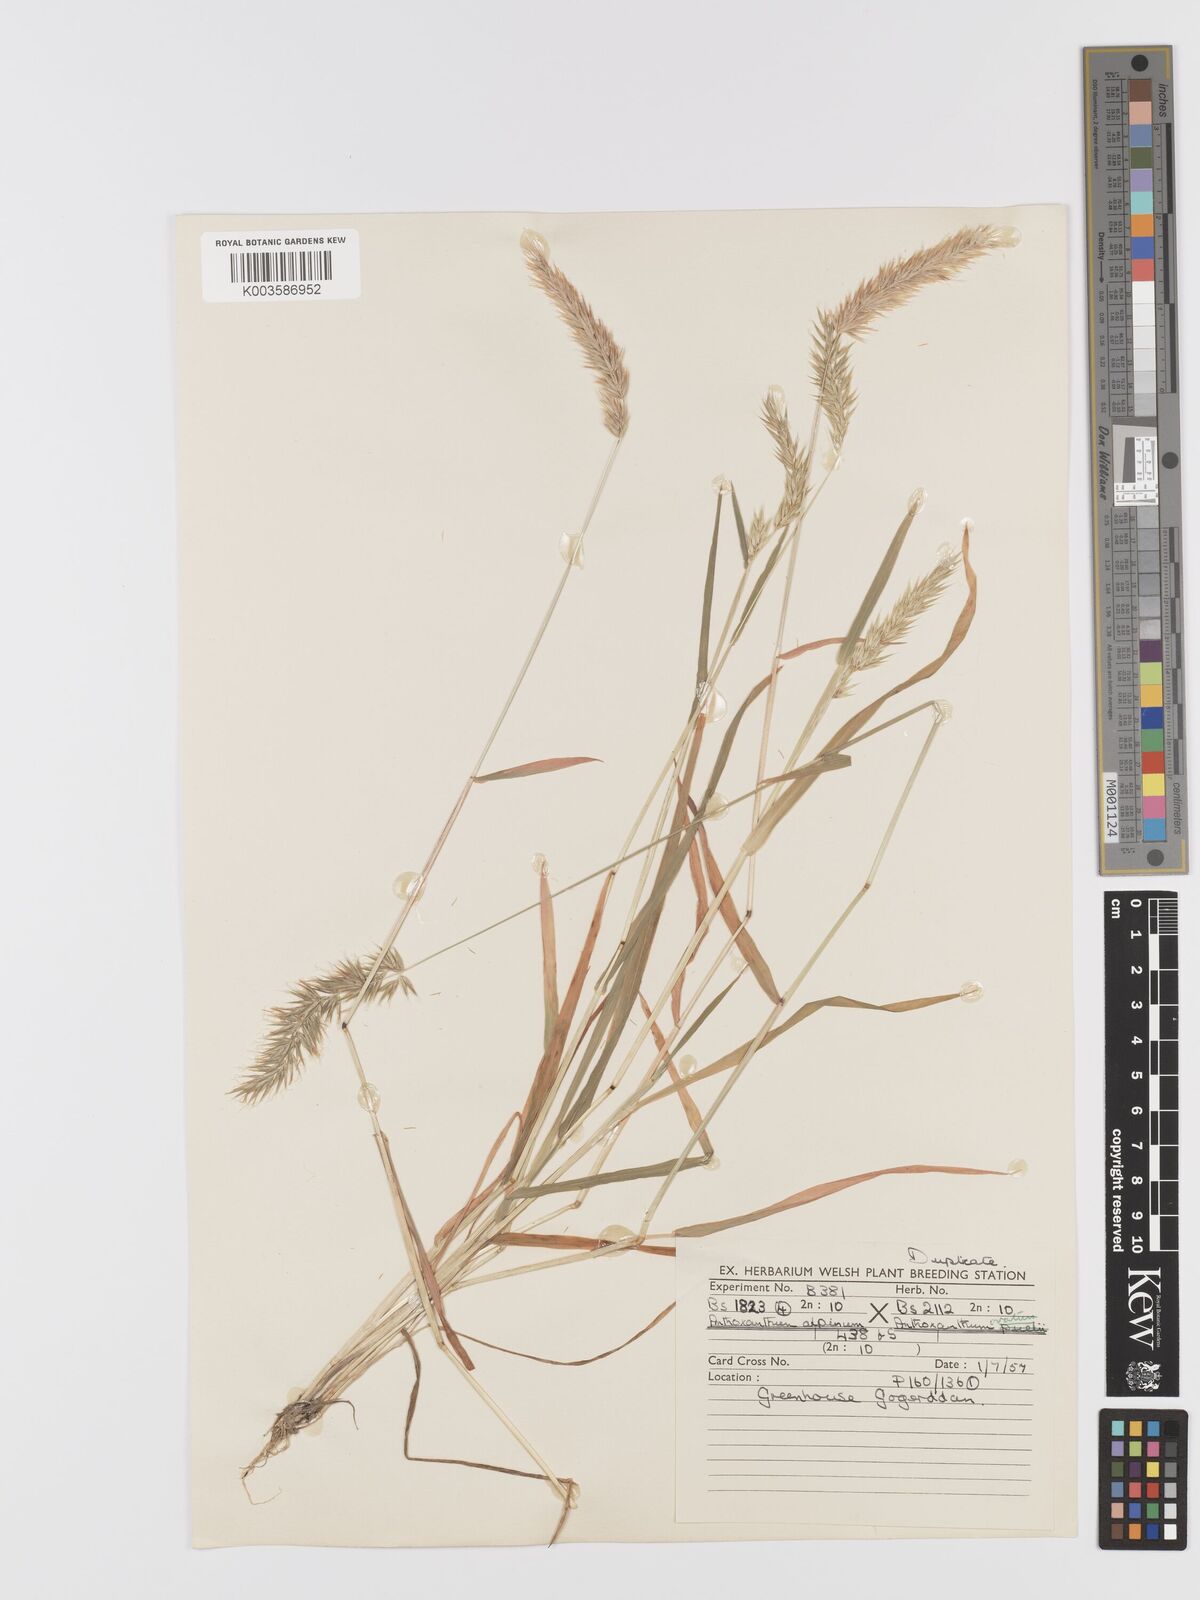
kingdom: Plantae
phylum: Tracheophyta
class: Liliopsida
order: Poales
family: Poaceae
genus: Anthoxanthum
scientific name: Anthoxanthum nipponicum
